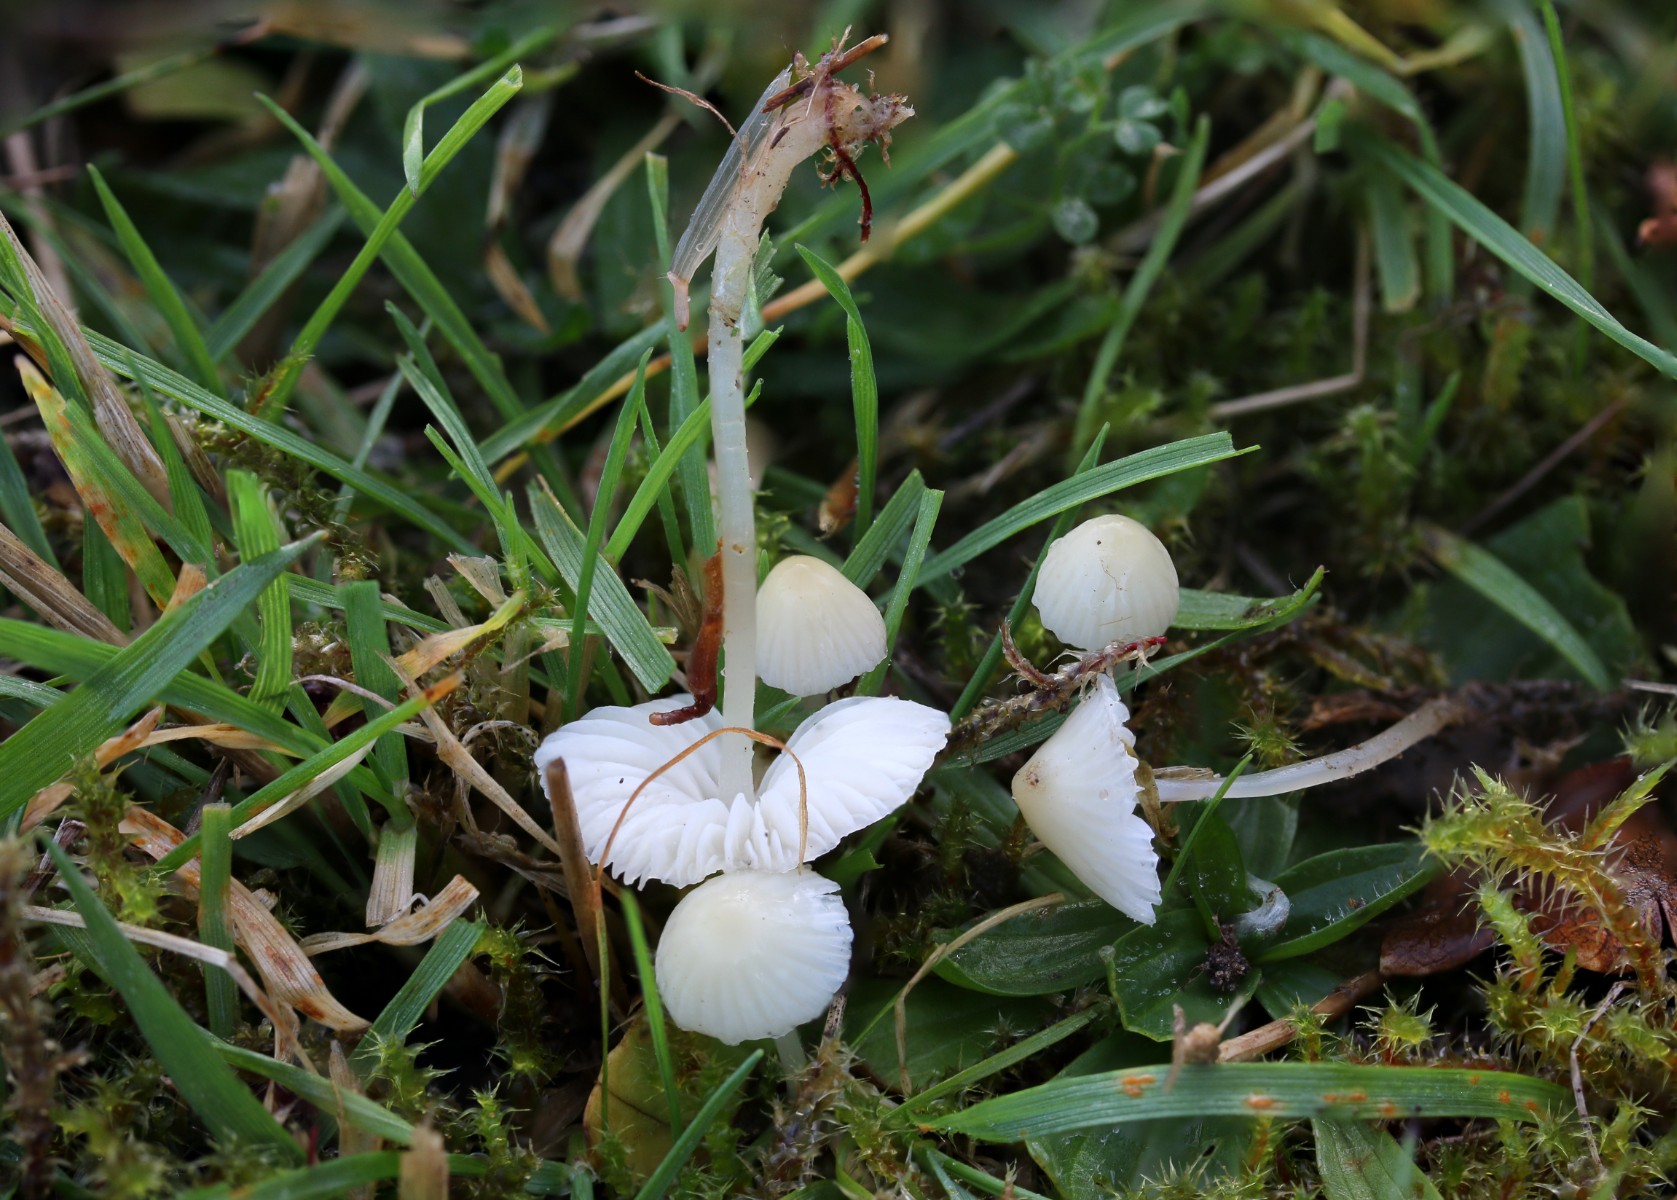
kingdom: Fungi
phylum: Basidiomycota
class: Agaricomycetes
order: Agaricales
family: Mycenaceae
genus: Atheniella
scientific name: Atheniella flavoalba
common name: gulhvid huesvamp
